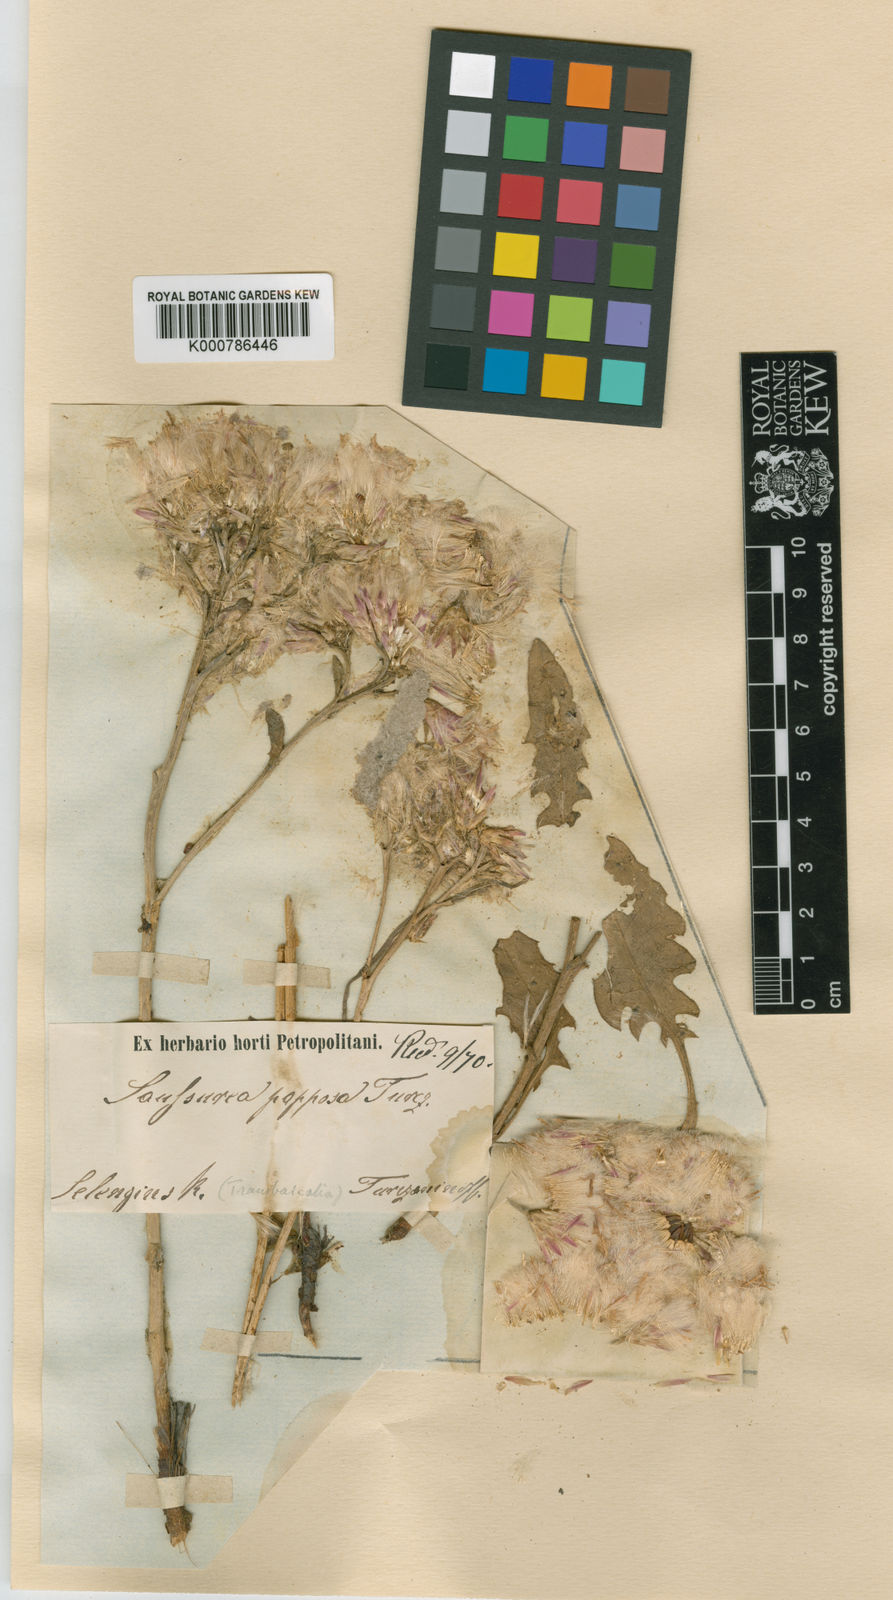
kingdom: Plantae
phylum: Tracheophyta
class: Magnoliopsida
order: Asterales
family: Asteraceae
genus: Saussurea
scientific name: Saussurea salsa
